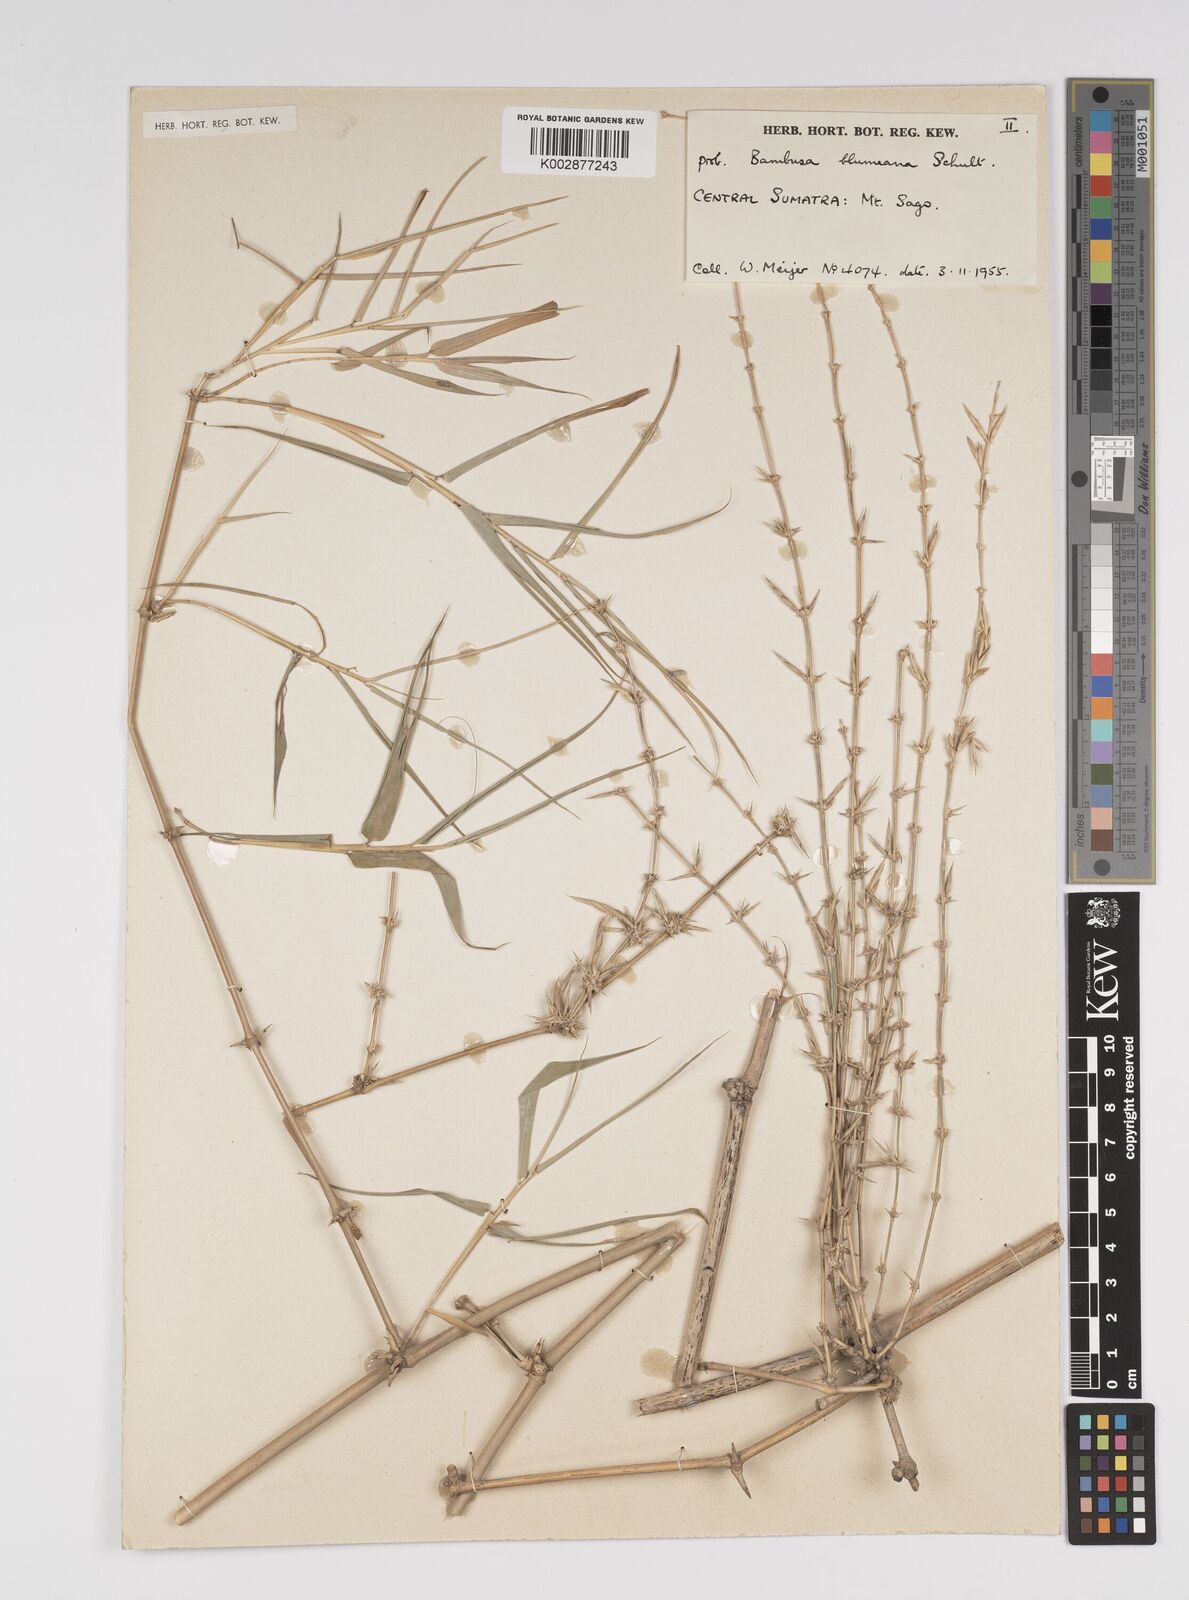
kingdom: Plantae
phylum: Tracheophyta
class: Liliopsida
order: Poales
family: Poaceae
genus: Bambusa
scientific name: Bambusa
